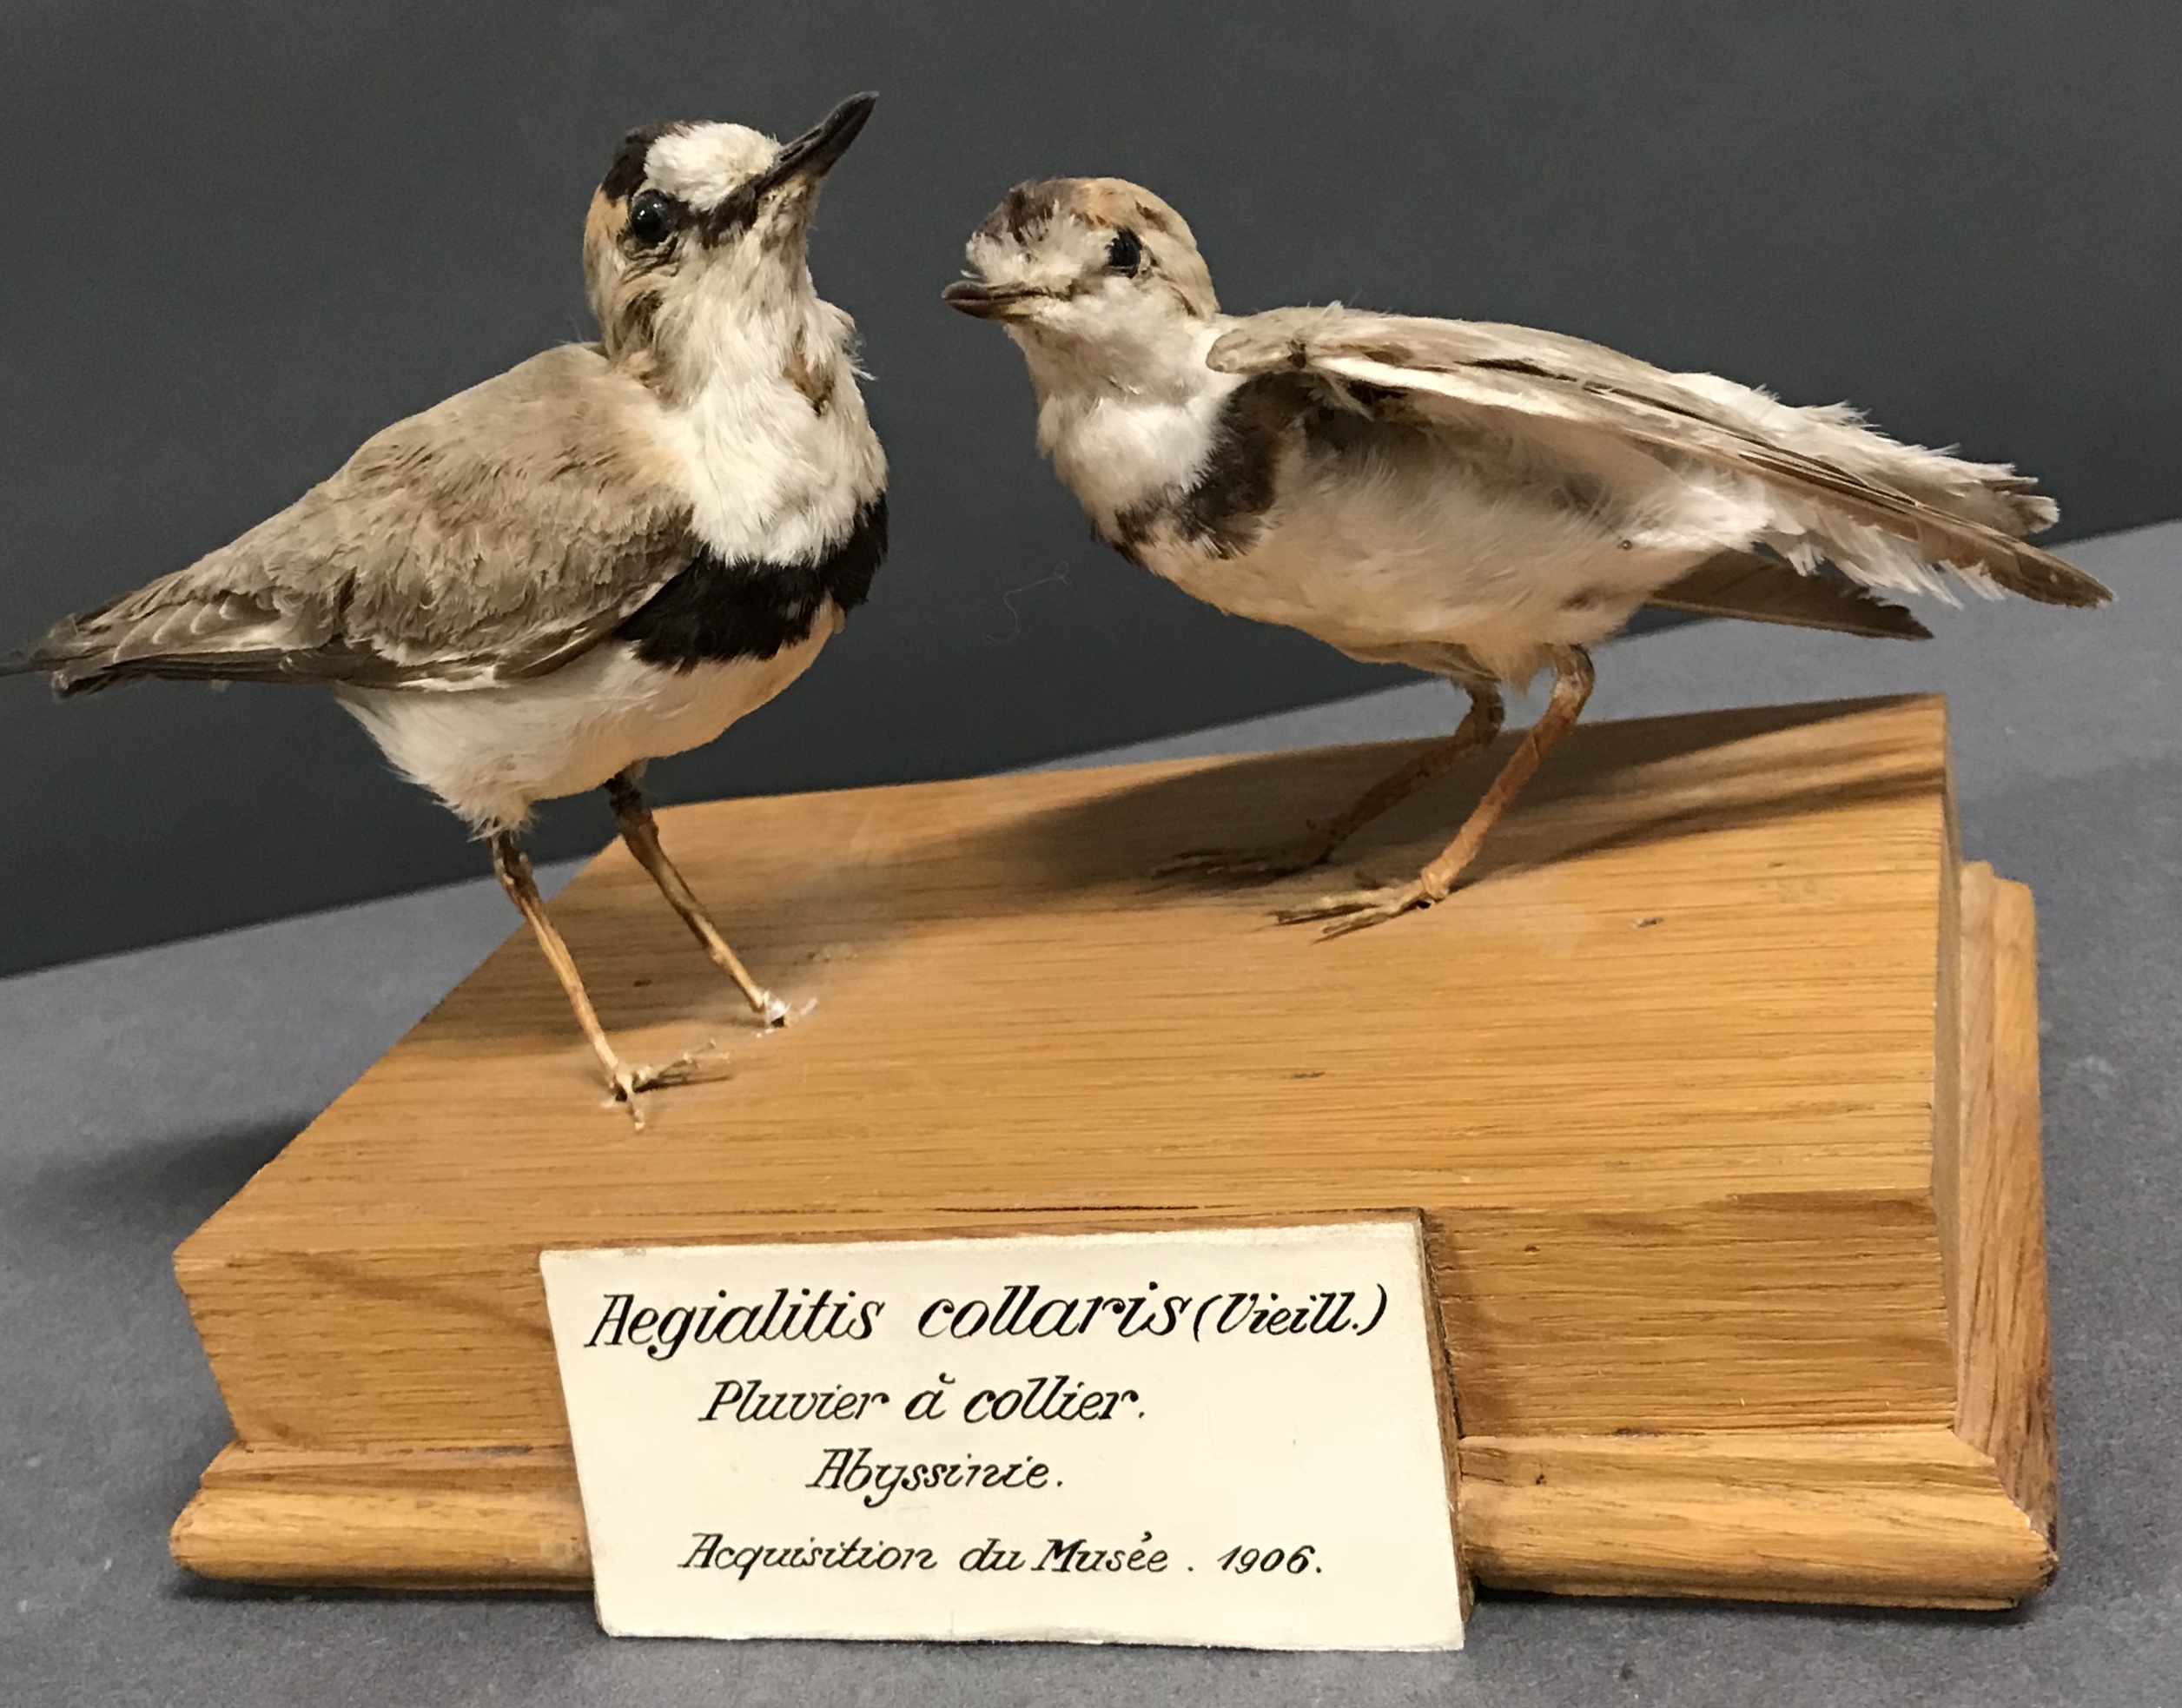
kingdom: Animalia
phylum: Chordata
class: Aves
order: Charadriiformes
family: Charadriidae
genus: Charadrius
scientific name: Charadrius collaris
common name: Collared plover
